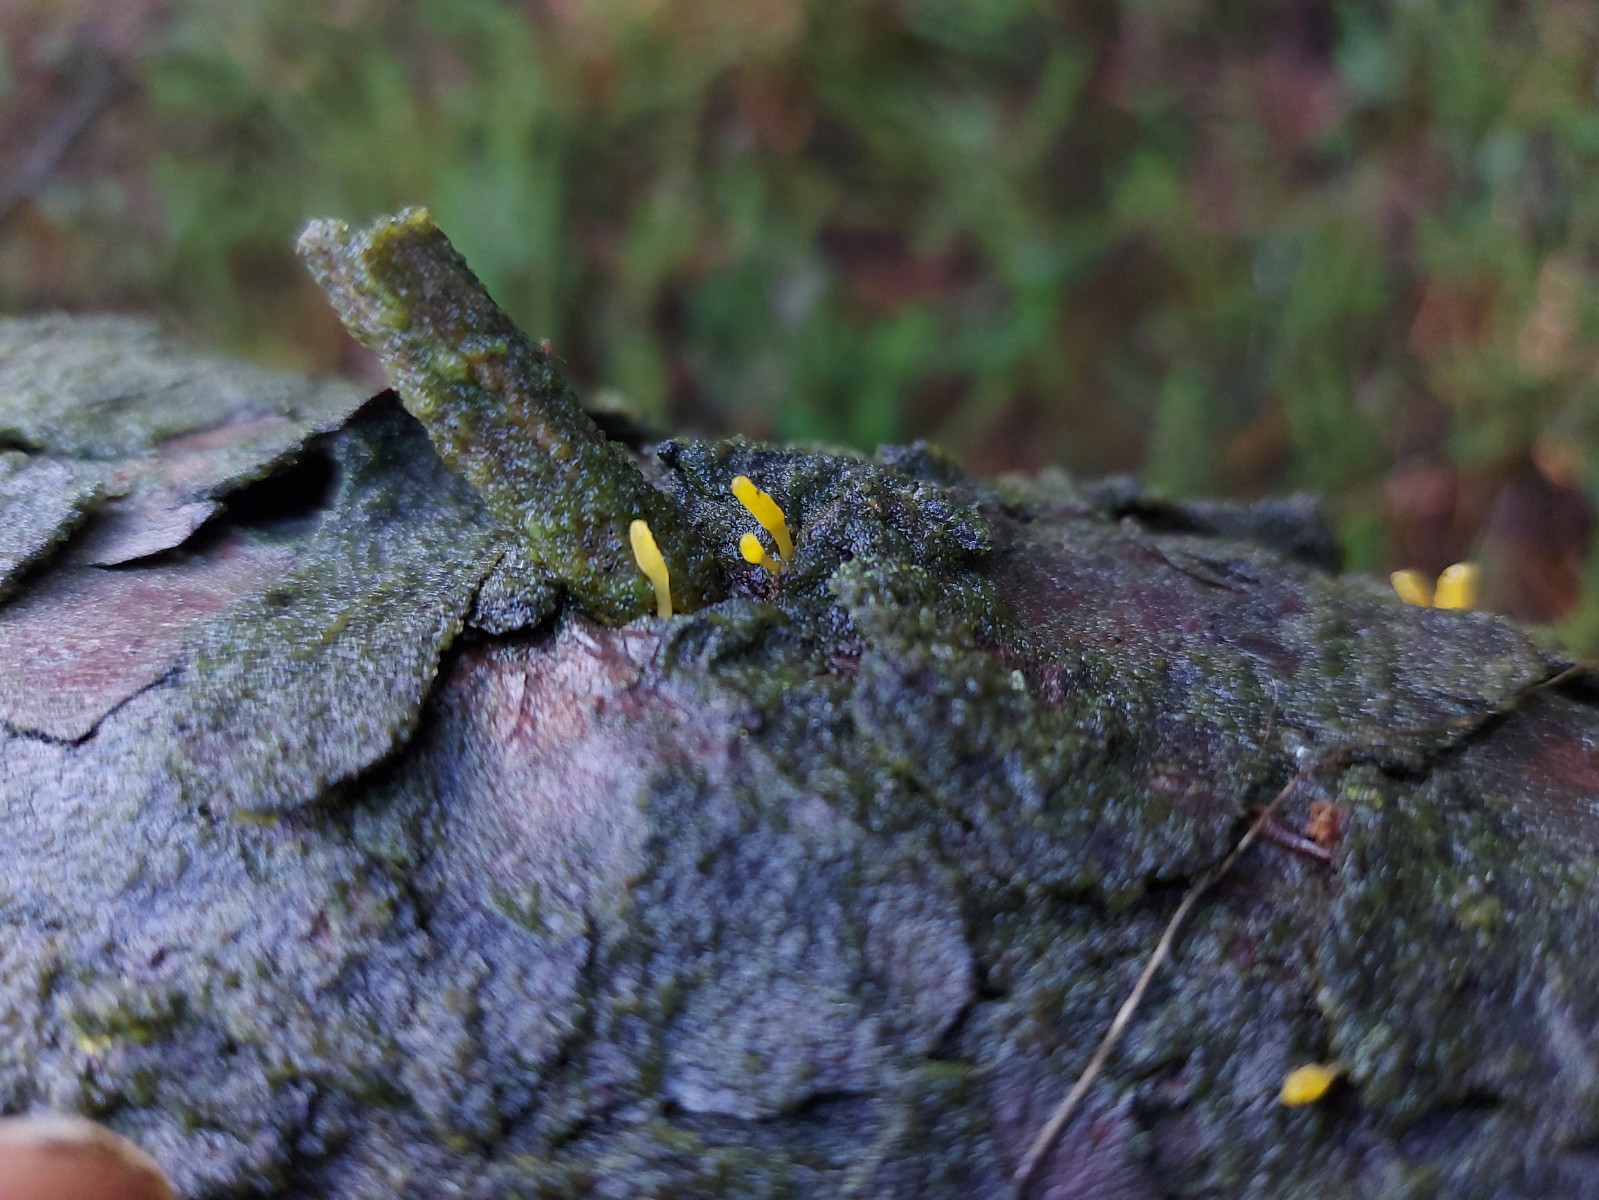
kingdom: Fungi
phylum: Basidiomycota
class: Dacrymycetes
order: Dacrymycetales
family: Dacrymycetaceae
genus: Calocera
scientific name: Calocera furcata
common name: fyrre-guldgaffel
